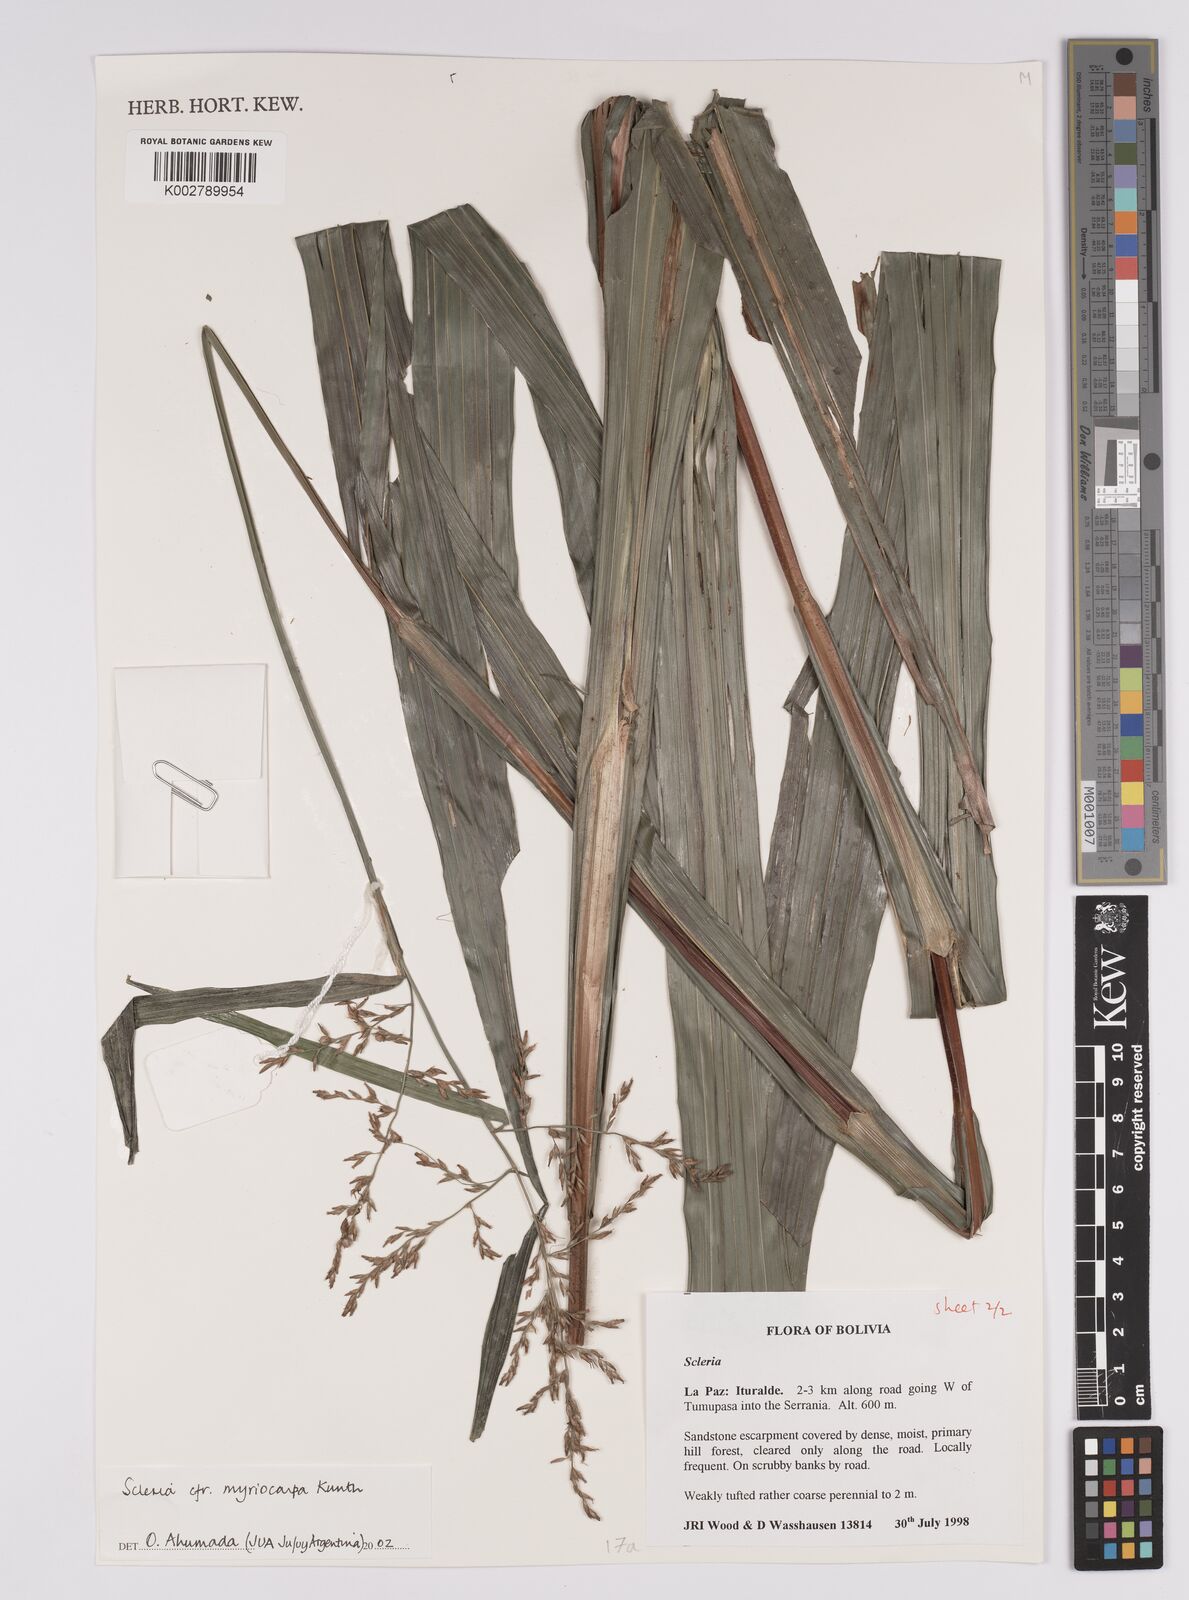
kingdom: Plantae
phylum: Tracheophyta
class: Liliopsida
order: Poales
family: Cyperaceae
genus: Scleria
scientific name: Scleria myricocarpa
